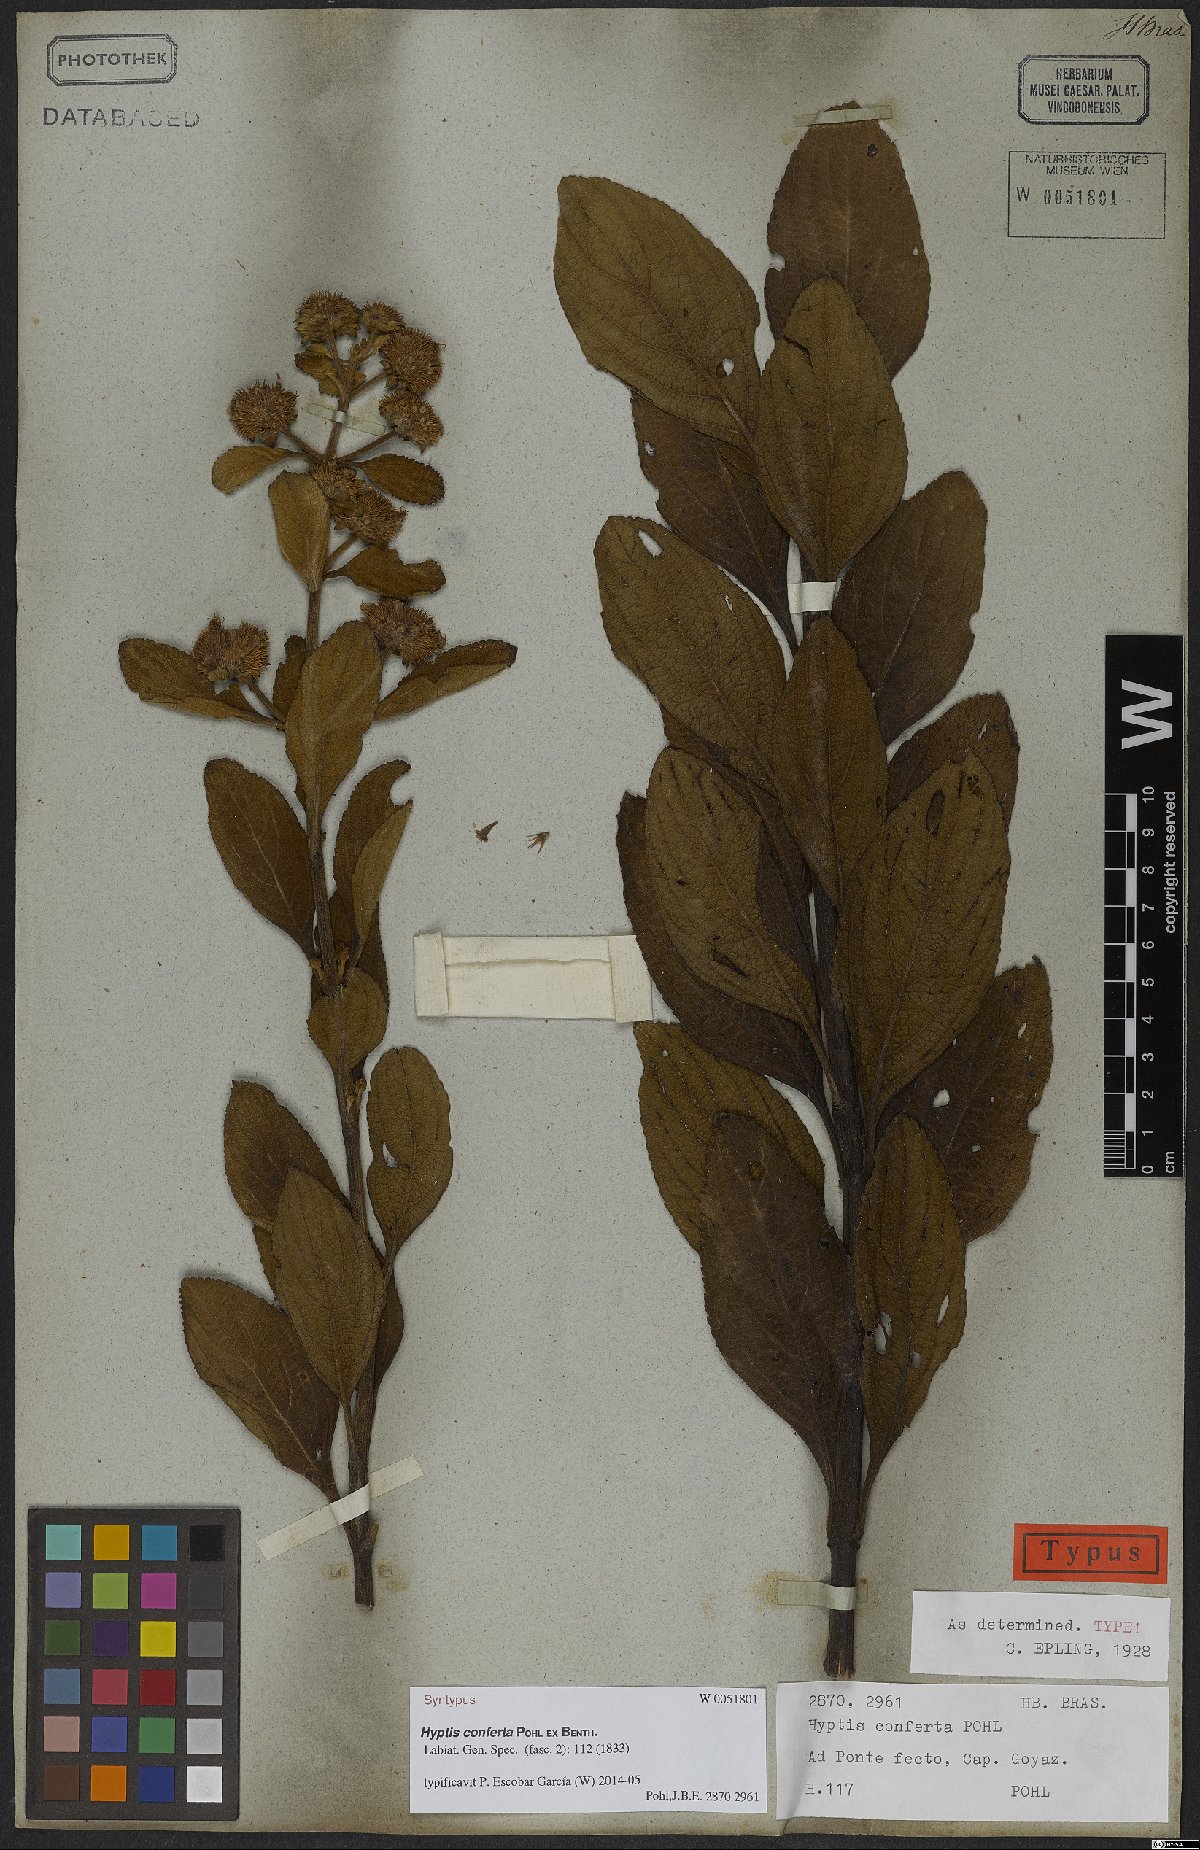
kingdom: Plantae
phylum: Tracheophyta
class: Magnoliopsida
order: Lamiales
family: Lamiaceae
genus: Hyptis
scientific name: Hyptis conferta
